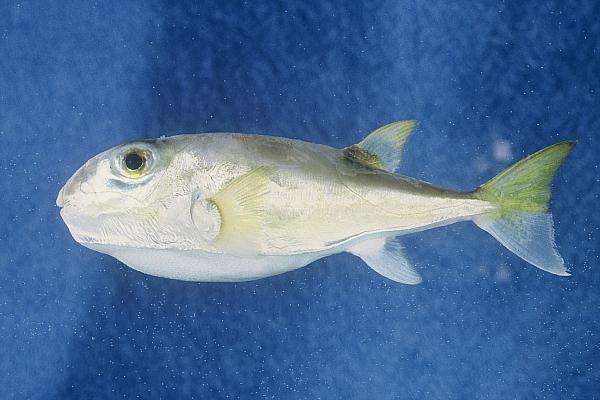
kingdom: Animalia
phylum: Chordata
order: Tetraodontiformes
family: Tetraodontidae
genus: Lagocephalus
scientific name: Lagocephalus lunaris
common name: Green rrough-backed puffer
